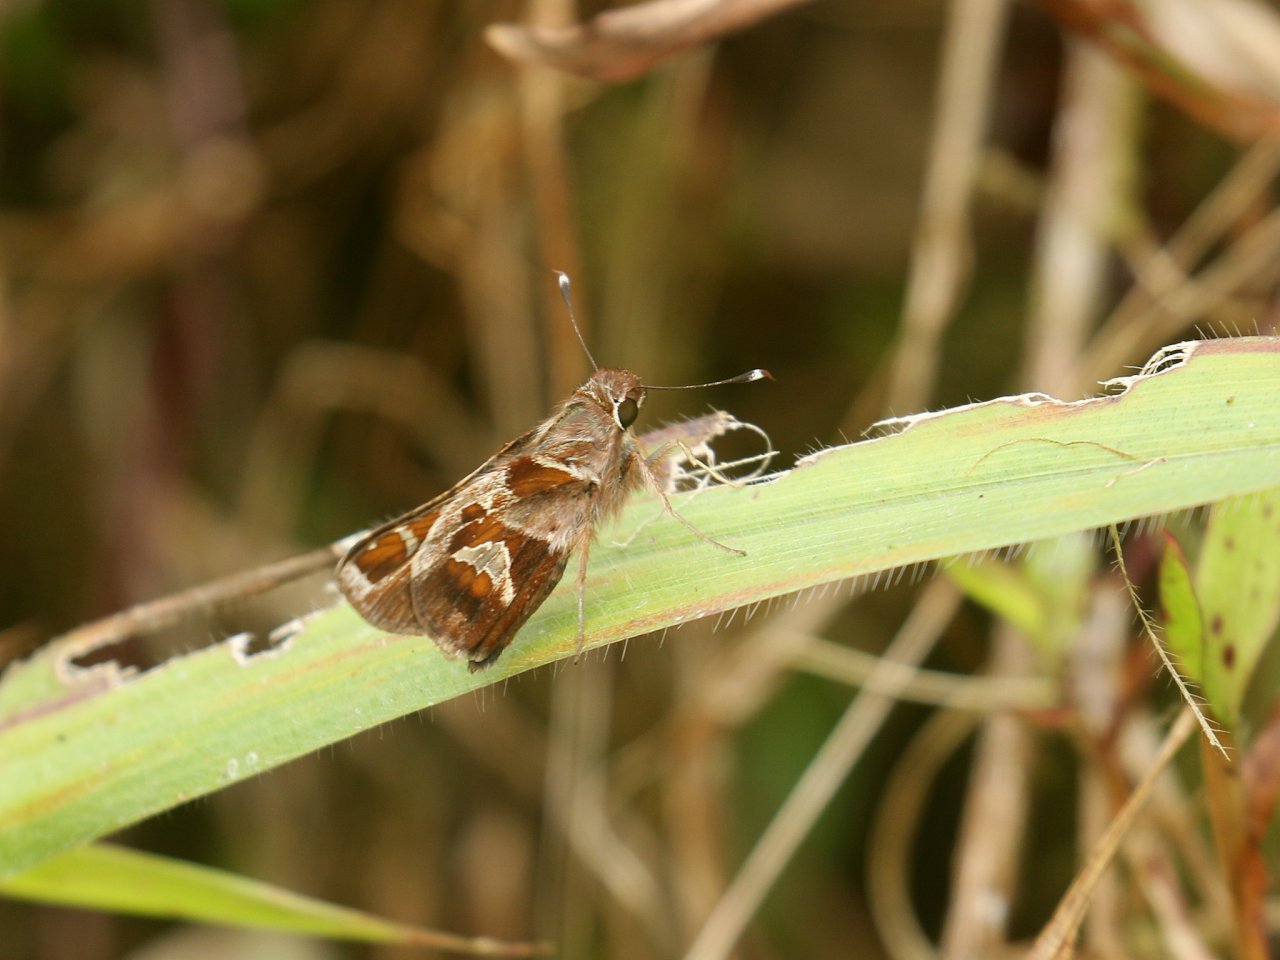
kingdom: Animalia
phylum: Arthropoda
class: Insecta
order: Lepidoptera
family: Hesperiidae
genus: Thespieus
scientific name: Thespieus
